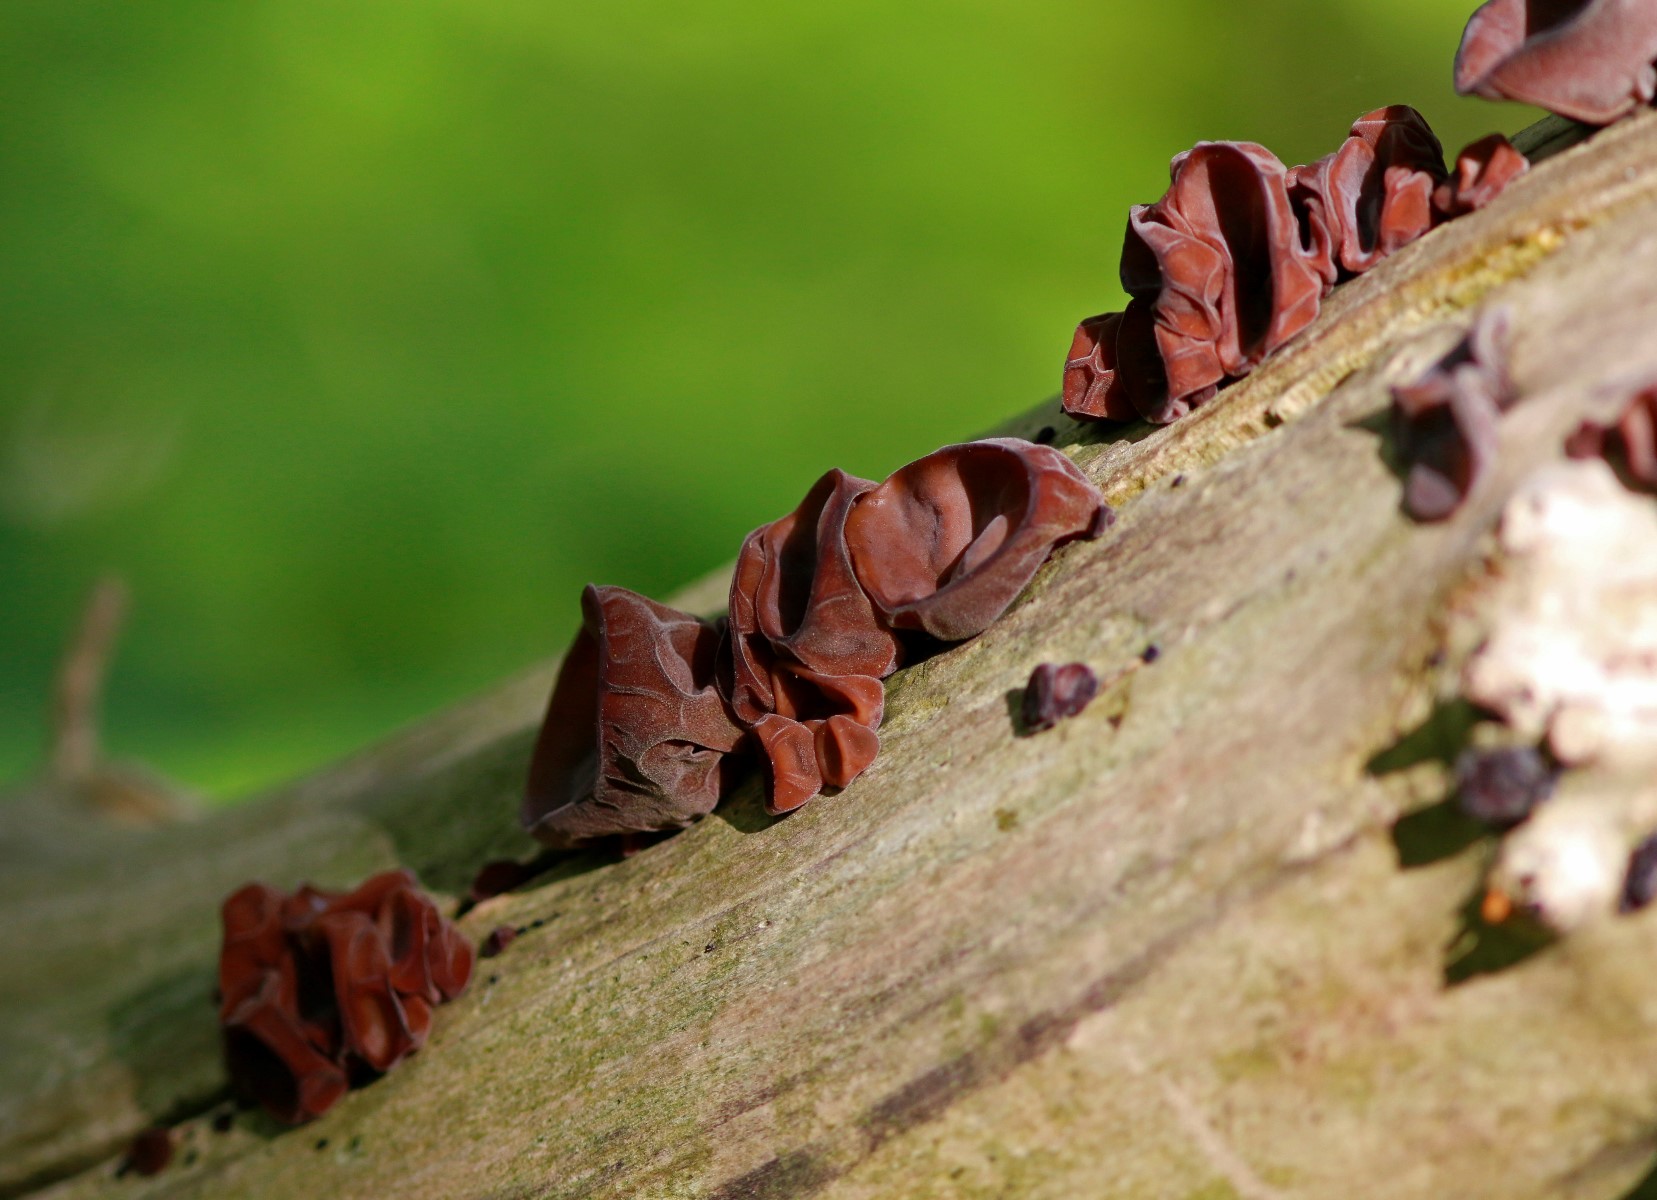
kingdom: Fungi
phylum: Basidiomycota
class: Agaricomycetes
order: Auriculariales
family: Auriculariaceae
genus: Auricularia
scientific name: Auricularia auricula-judae
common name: almindelig judasøre
